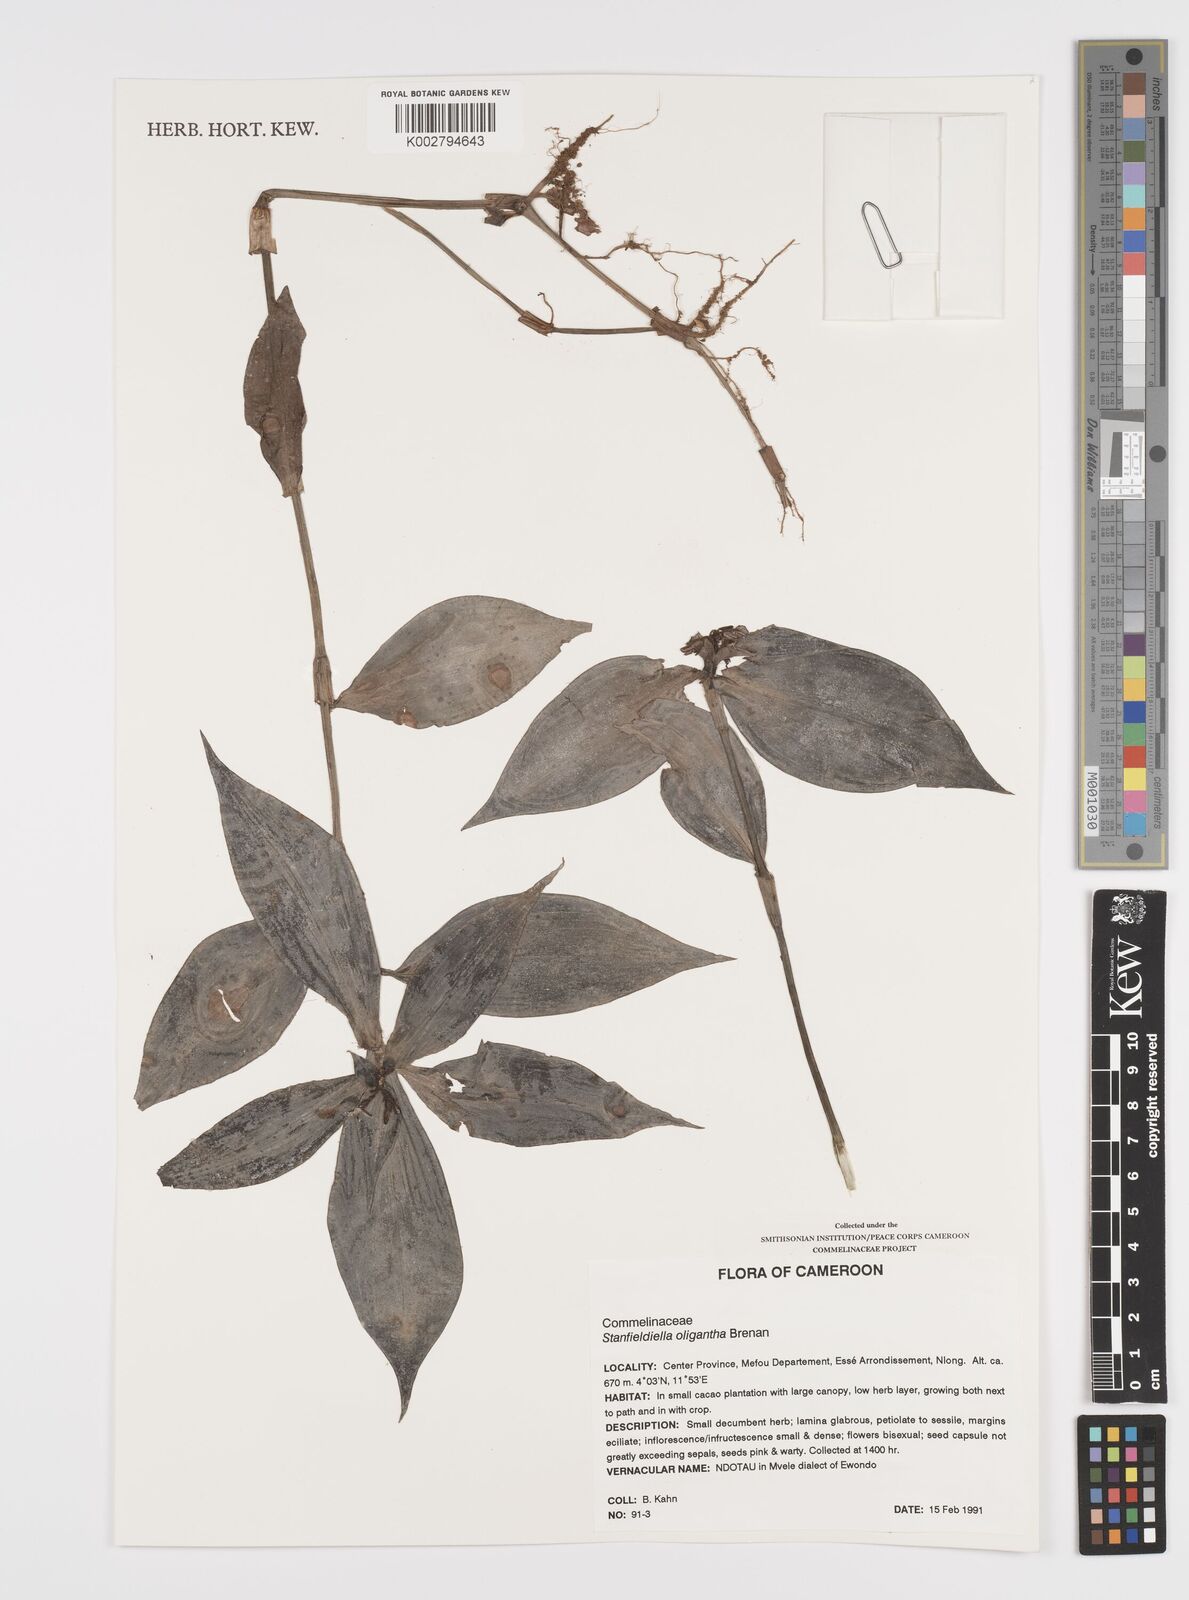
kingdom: Plantae
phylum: Tracheophyta
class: Liliopsida
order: Commelinales
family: Commelinaceae
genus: Stanfieldiella
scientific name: Stanfieldiella oligantha
